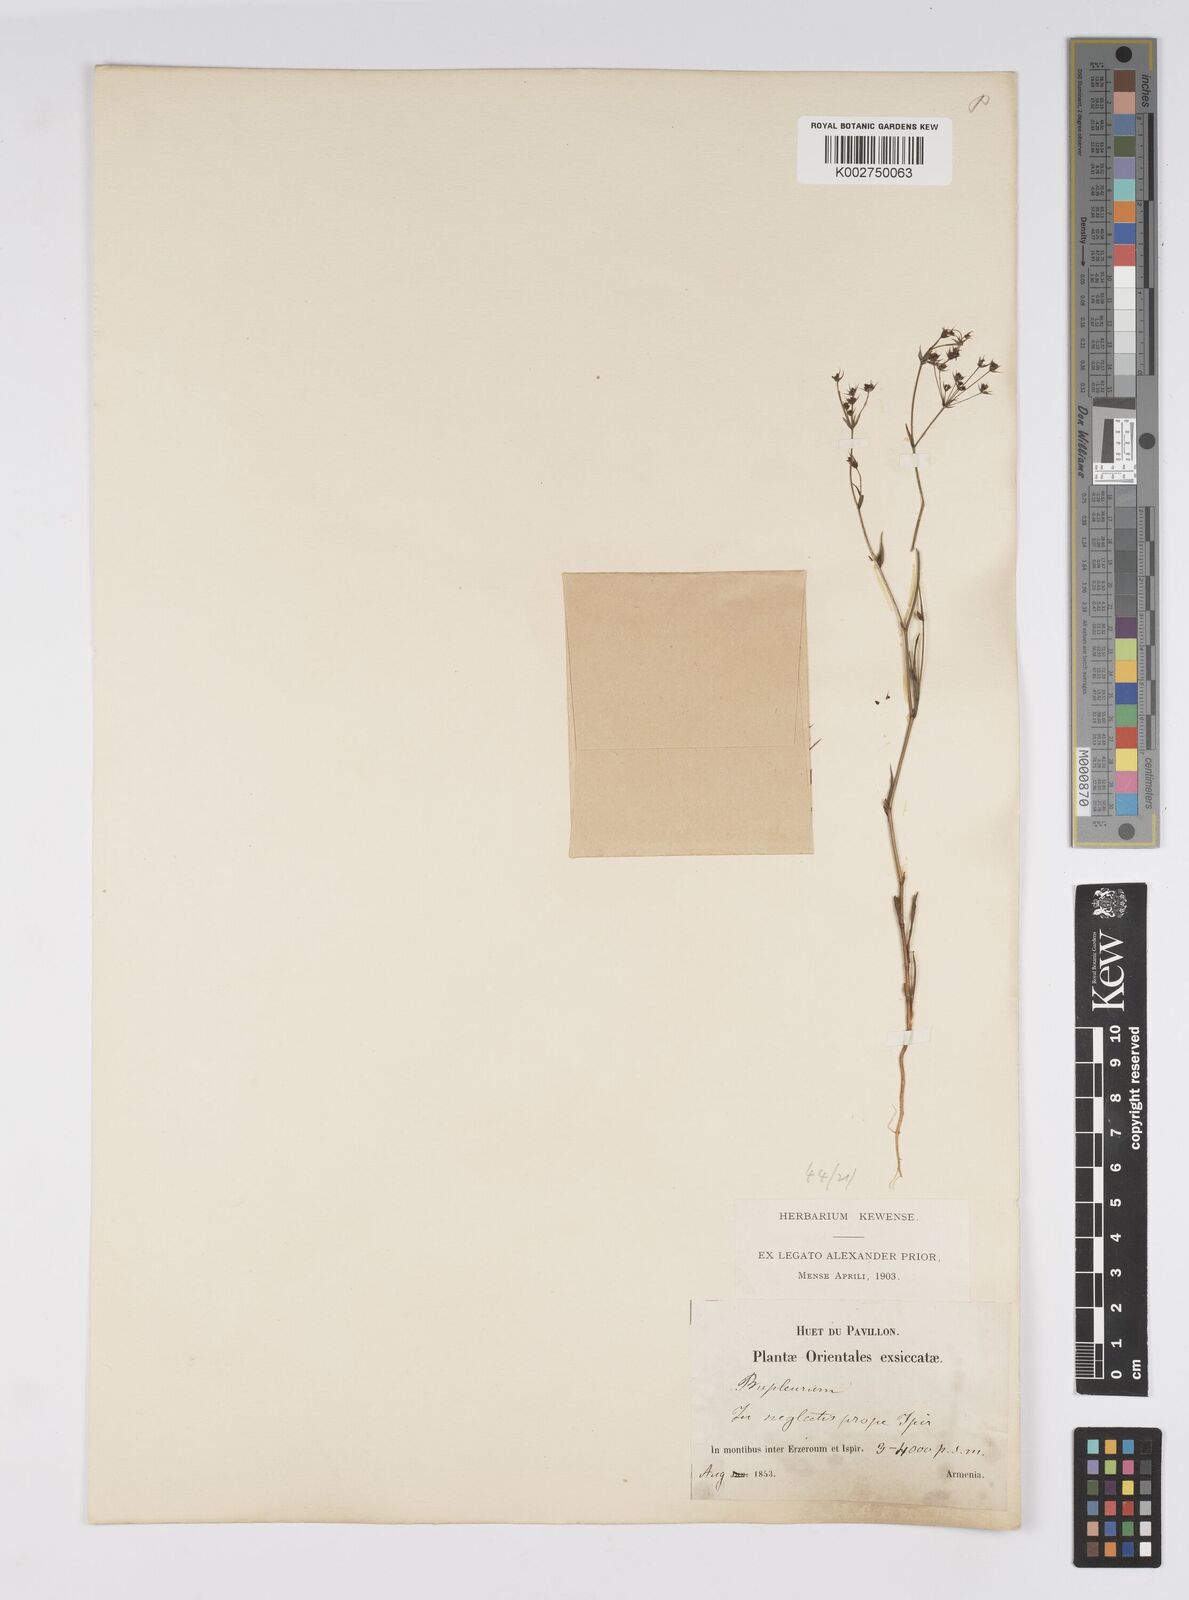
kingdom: Plantae
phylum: Tracheophyta
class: Magnoliopsida
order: Apiales
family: Apiaceae
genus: Bupleurum
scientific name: Bupleurum
